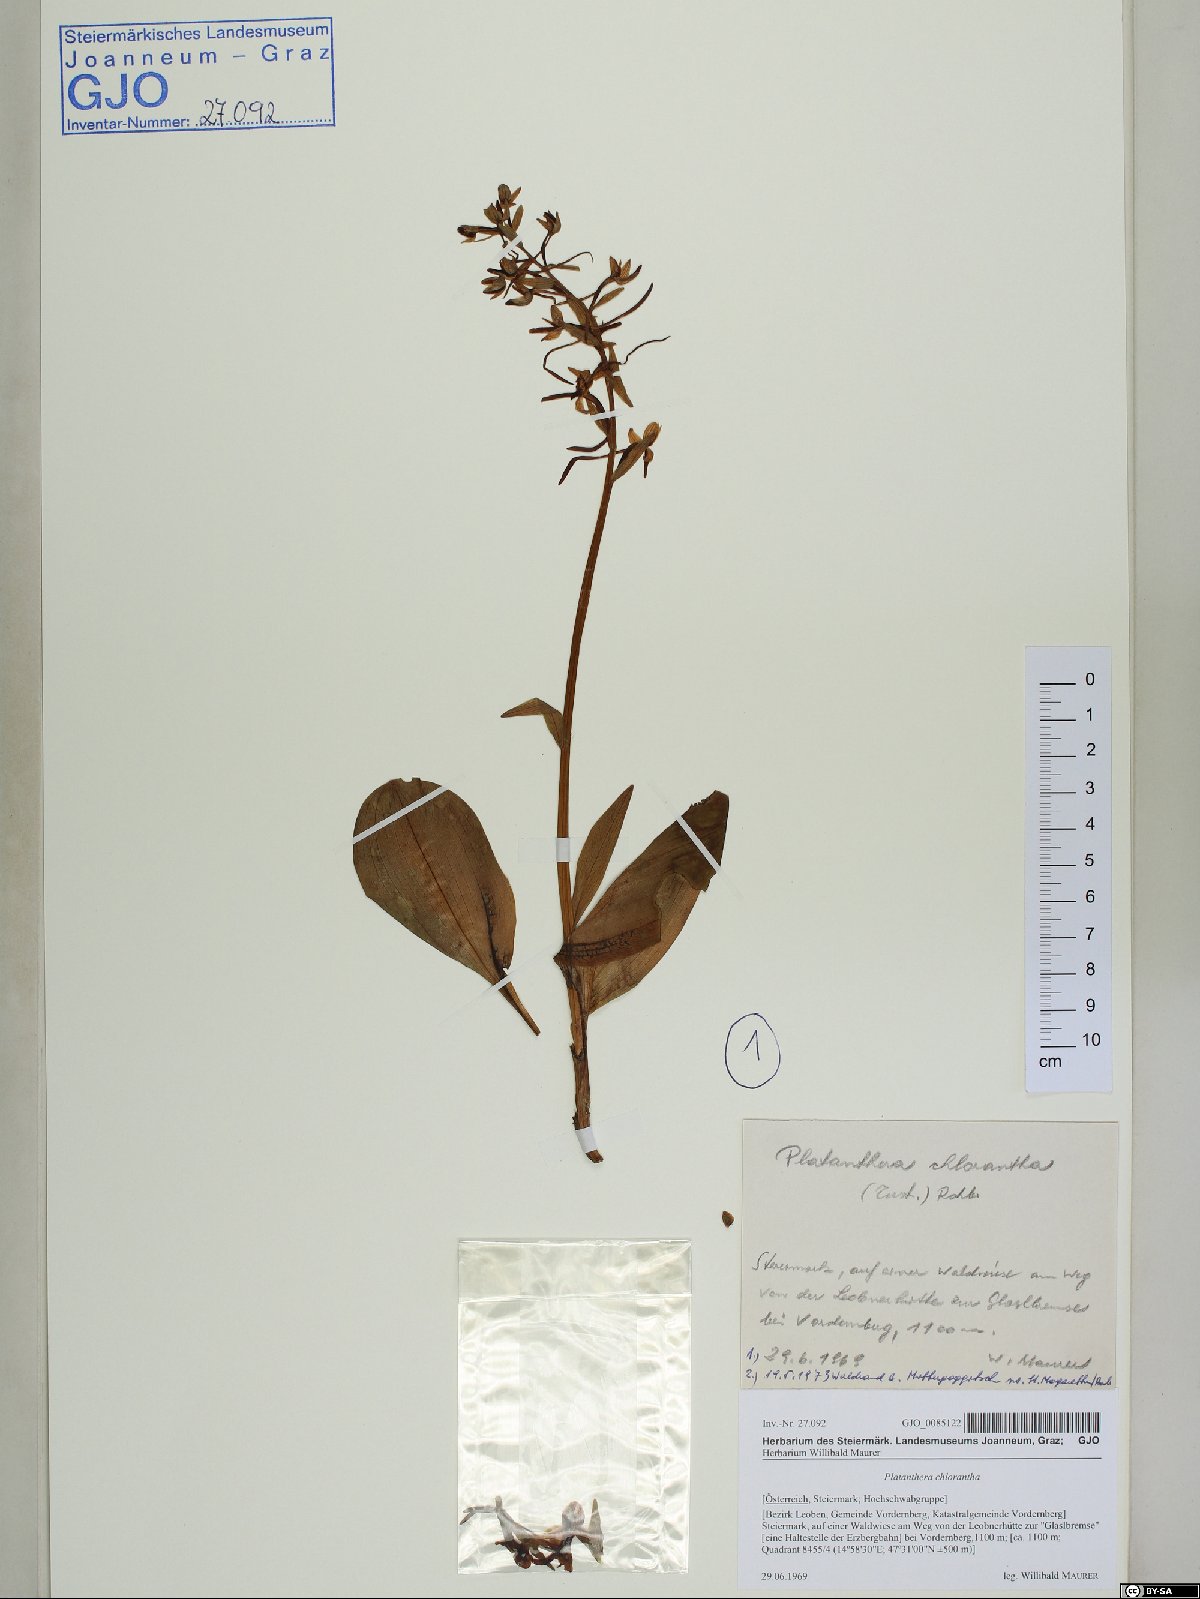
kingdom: Plantae
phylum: Tracheophyta
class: Liliopsida
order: Asparagales
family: Orchidaceae
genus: Platanthera
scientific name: Platanthera chlorantha
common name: Greater butterfly-orchid
